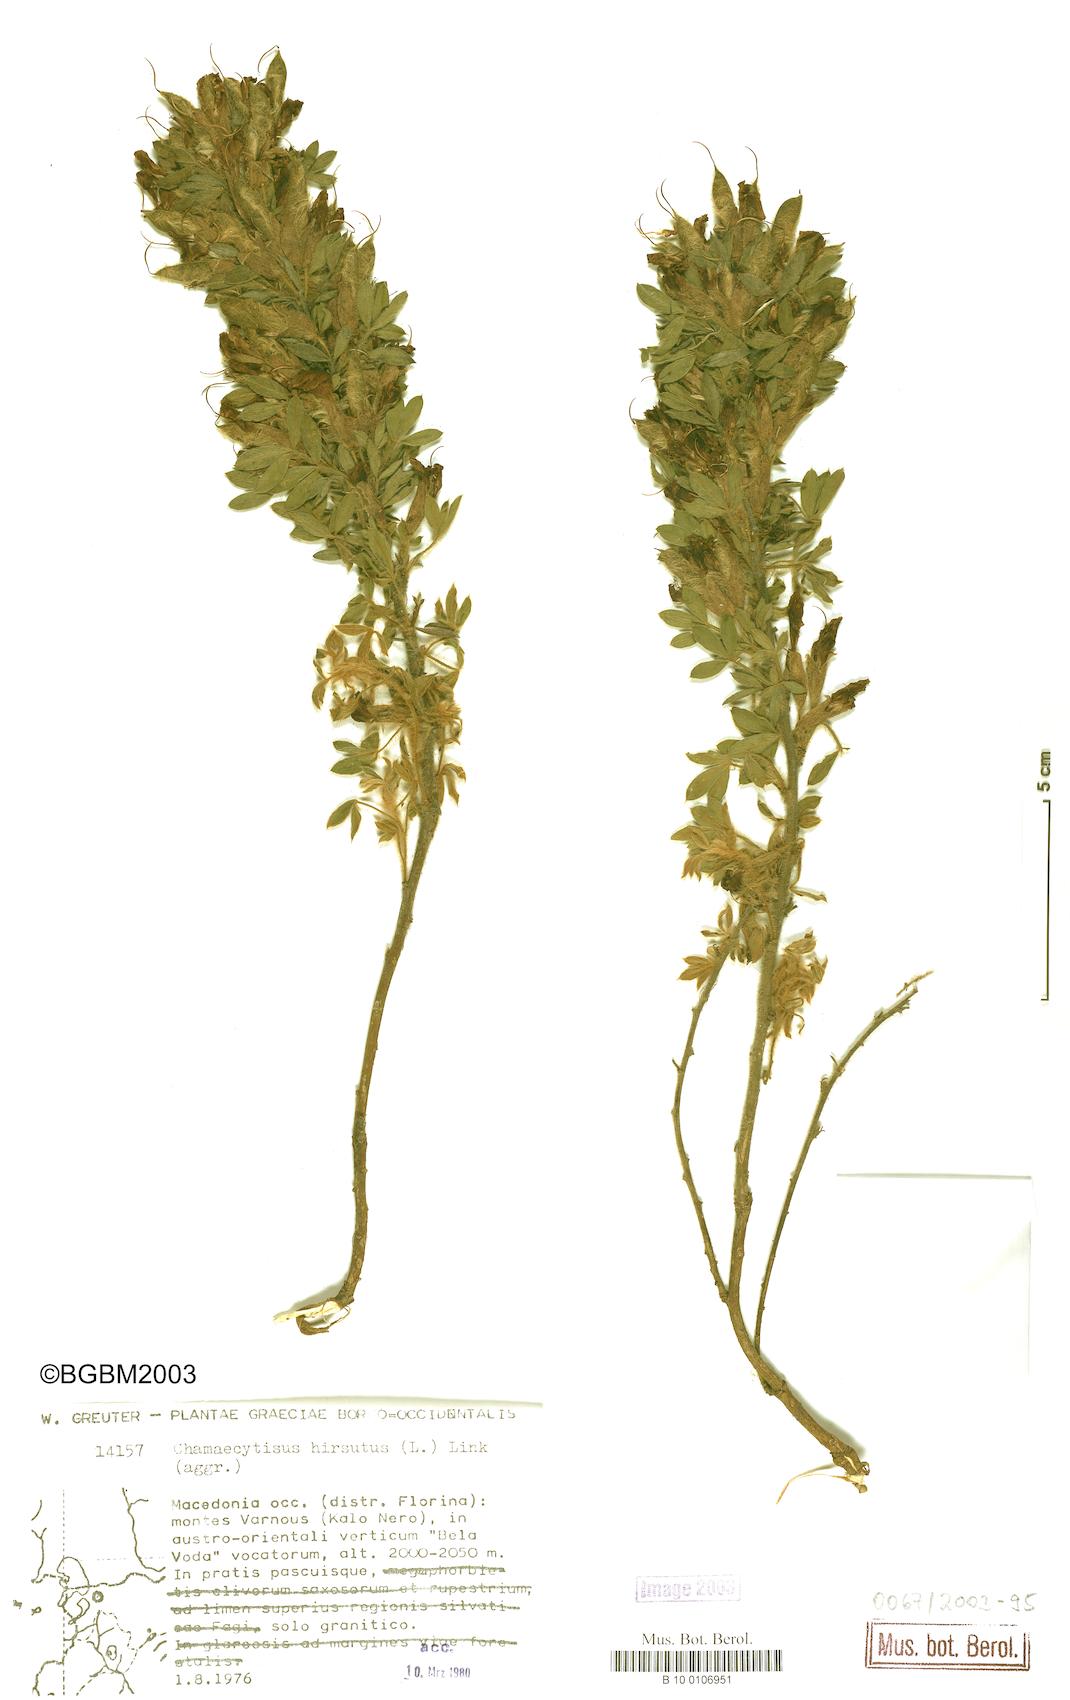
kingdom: Plantae
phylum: Tracheophyta
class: Magnoliopsida
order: Fabales
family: Fabaceae
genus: Chamaecytisus
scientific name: Chamaecytisus hirsutus
